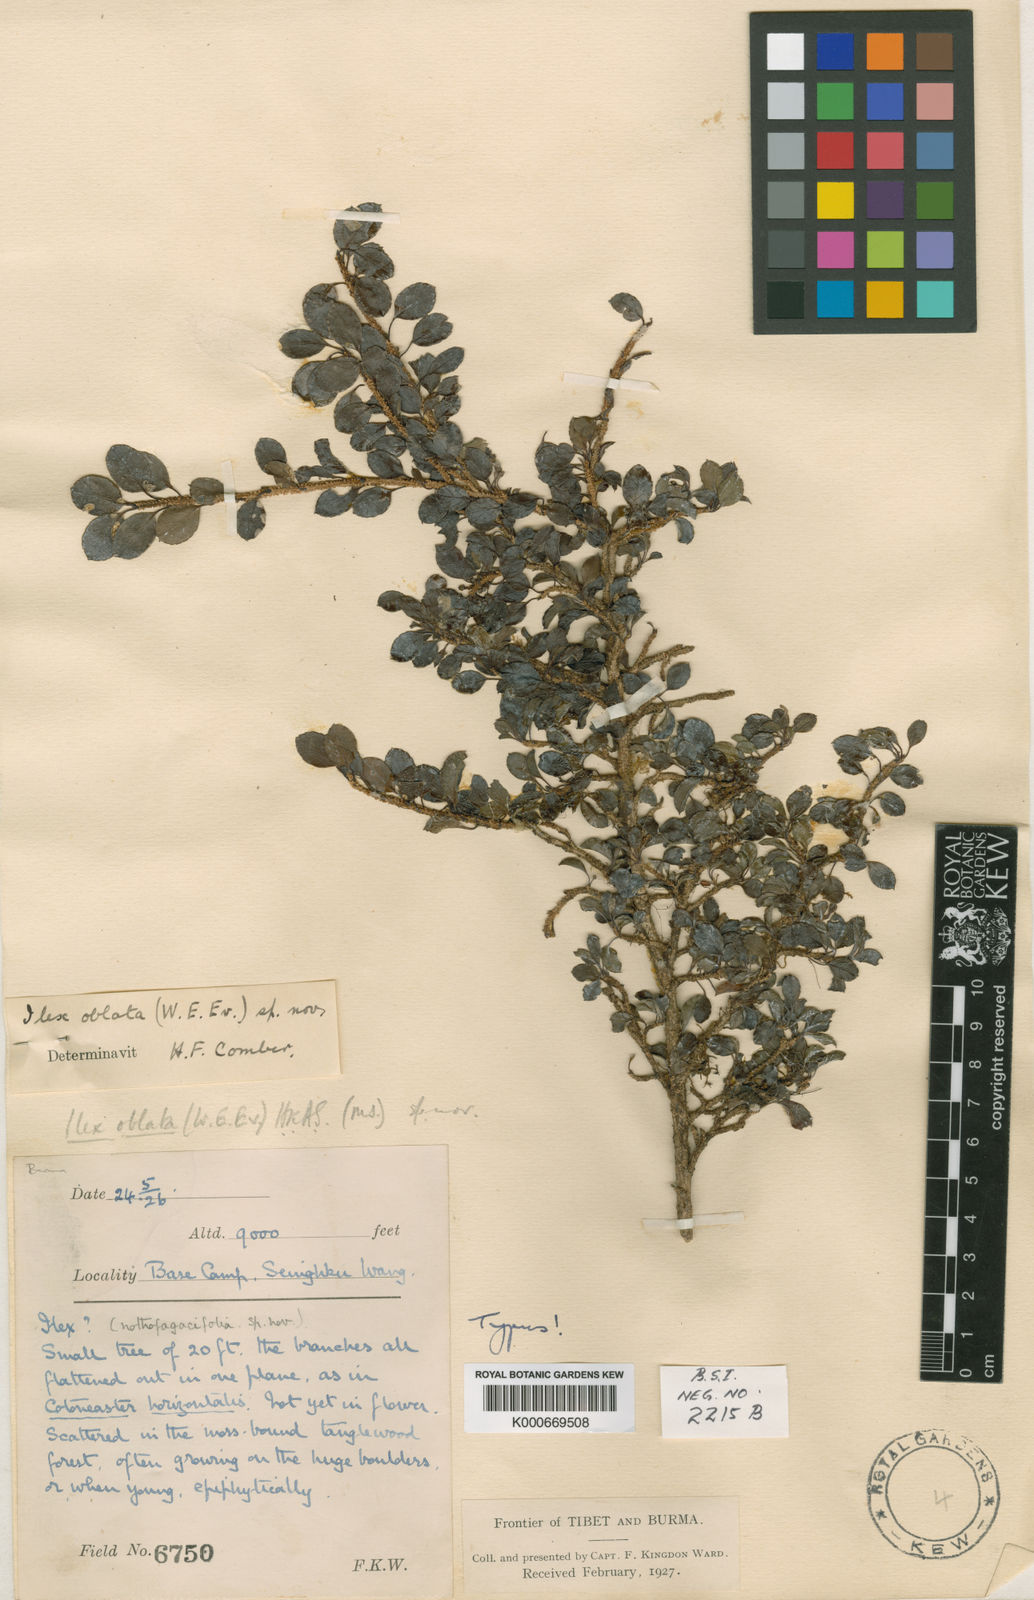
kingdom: Plantae
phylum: Tracheophyta
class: Magnoliopsida
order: Aquifoliales
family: Aquifoliaceae
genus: Ilex
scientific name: Ilex nothofagifolia
